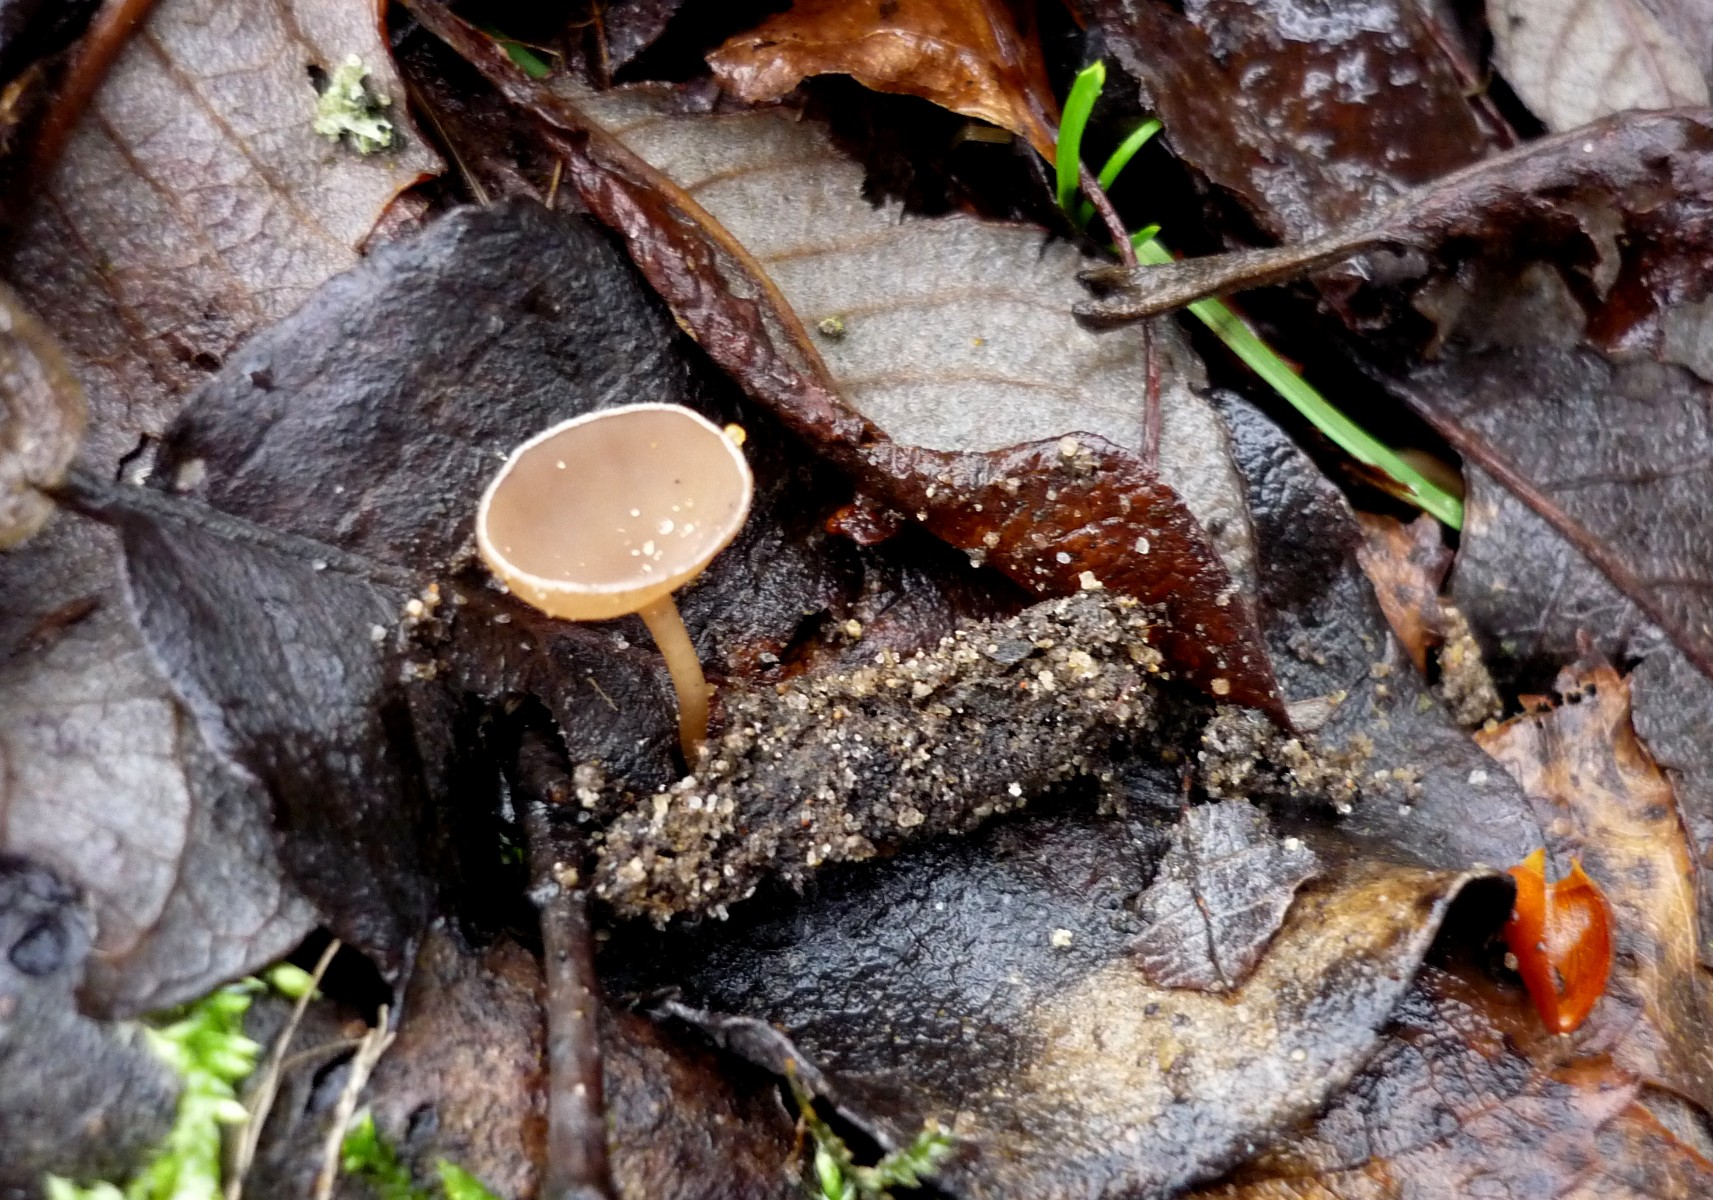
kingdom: Fungi
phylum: Ascomycota
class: Leotiomycetes
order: Helotiales
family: Sclerotiniaceae
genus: Ciboria
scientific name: Ciboria caucus
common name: rakle-knoldskive
